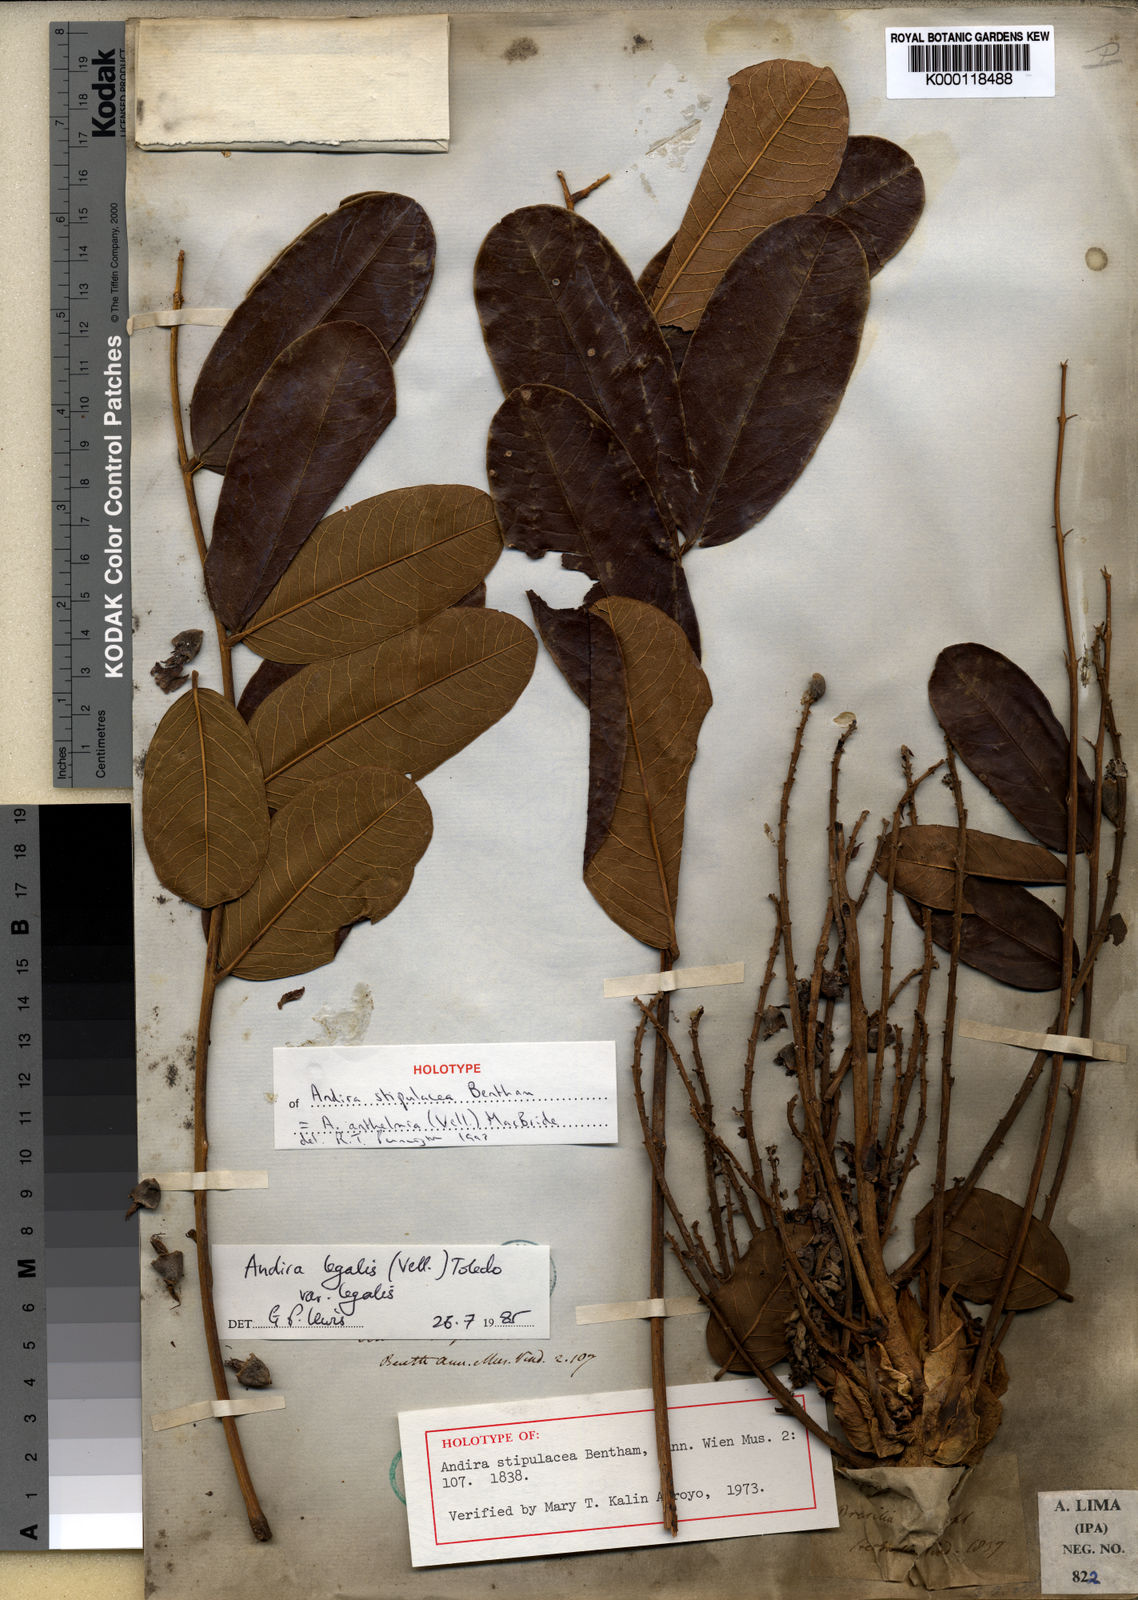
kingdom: Plantae
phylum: Tracheophyta
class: Magnoliopsida
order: Fabales
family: Fabaceae
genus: Andira
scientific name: Andira anthelmia
